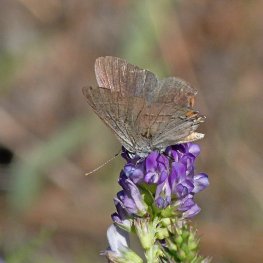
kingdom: Animalia
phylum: Arthropoda
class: Insecta
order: Lepidoptera
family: Lycaenidae
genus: Strymon
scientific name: Strymon melinus
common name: Gray Hairstreak
